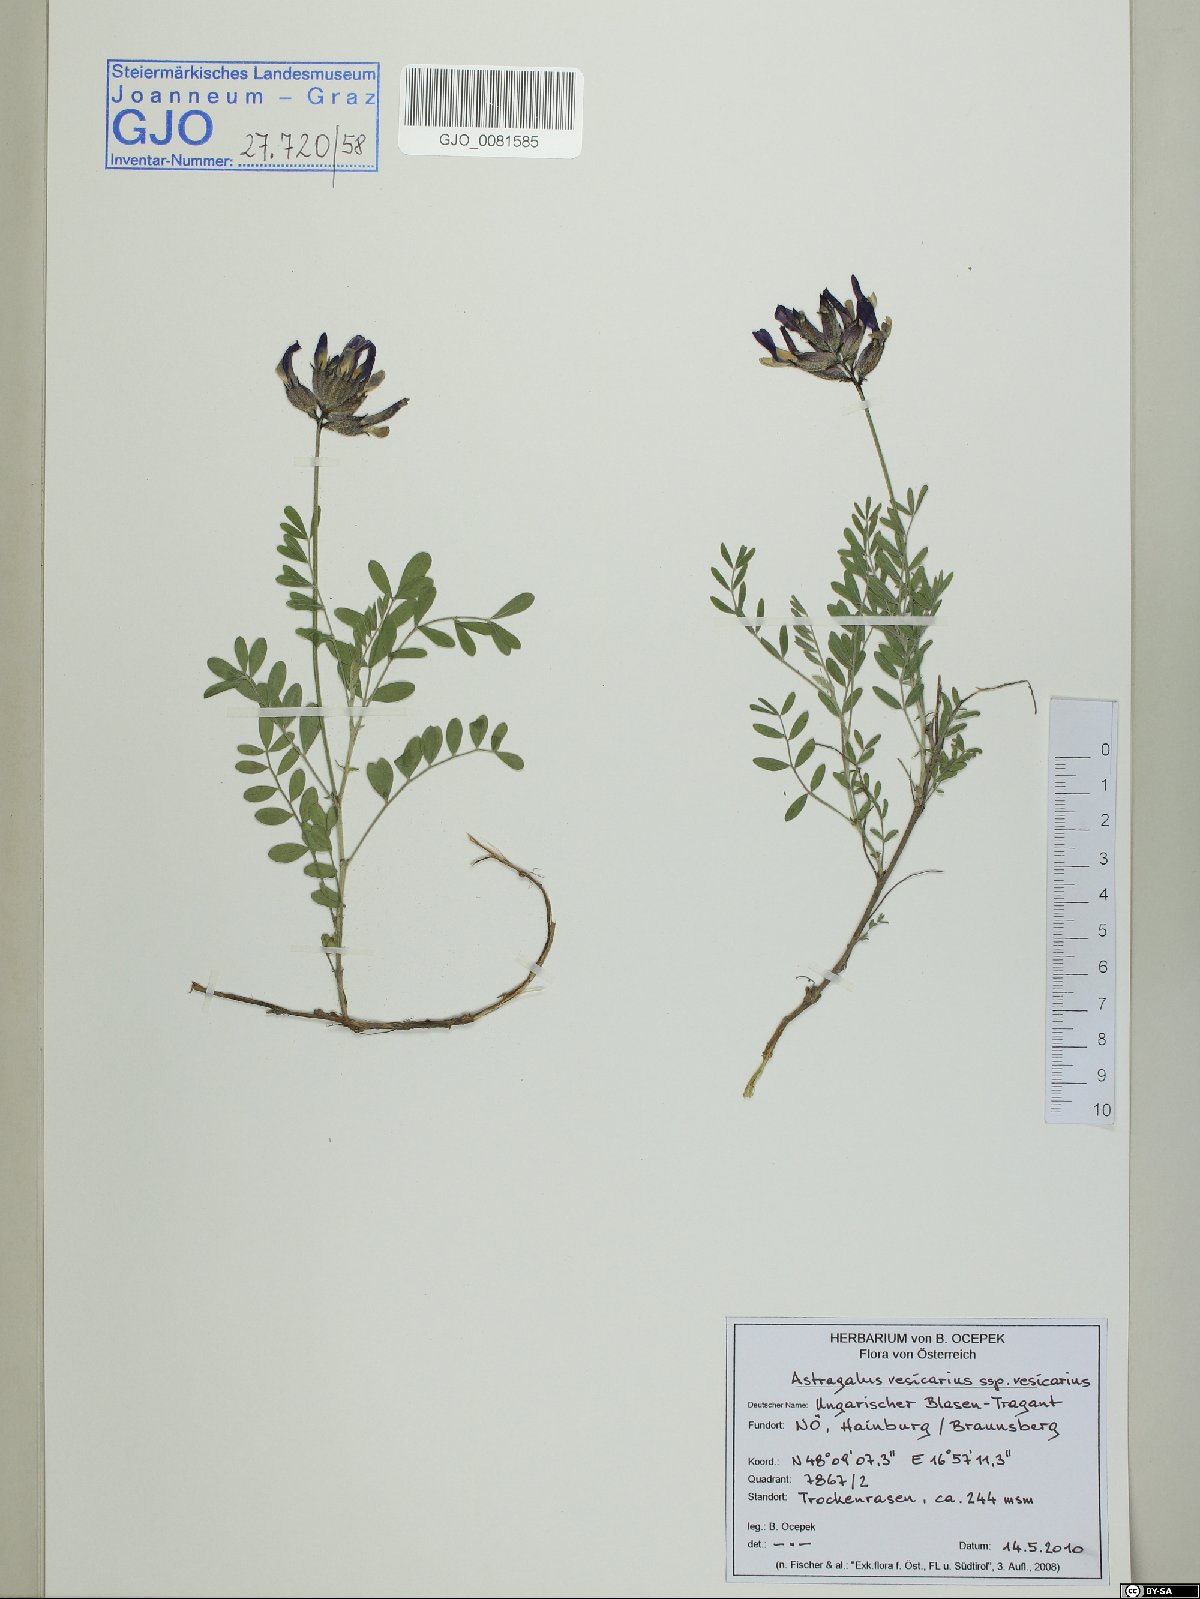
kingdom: Plantae
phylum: Tracheophyta
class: Magnoliopsida
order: Fabales
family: Fabaceae
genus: Astragalus
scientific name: Astragalus vesicarius
